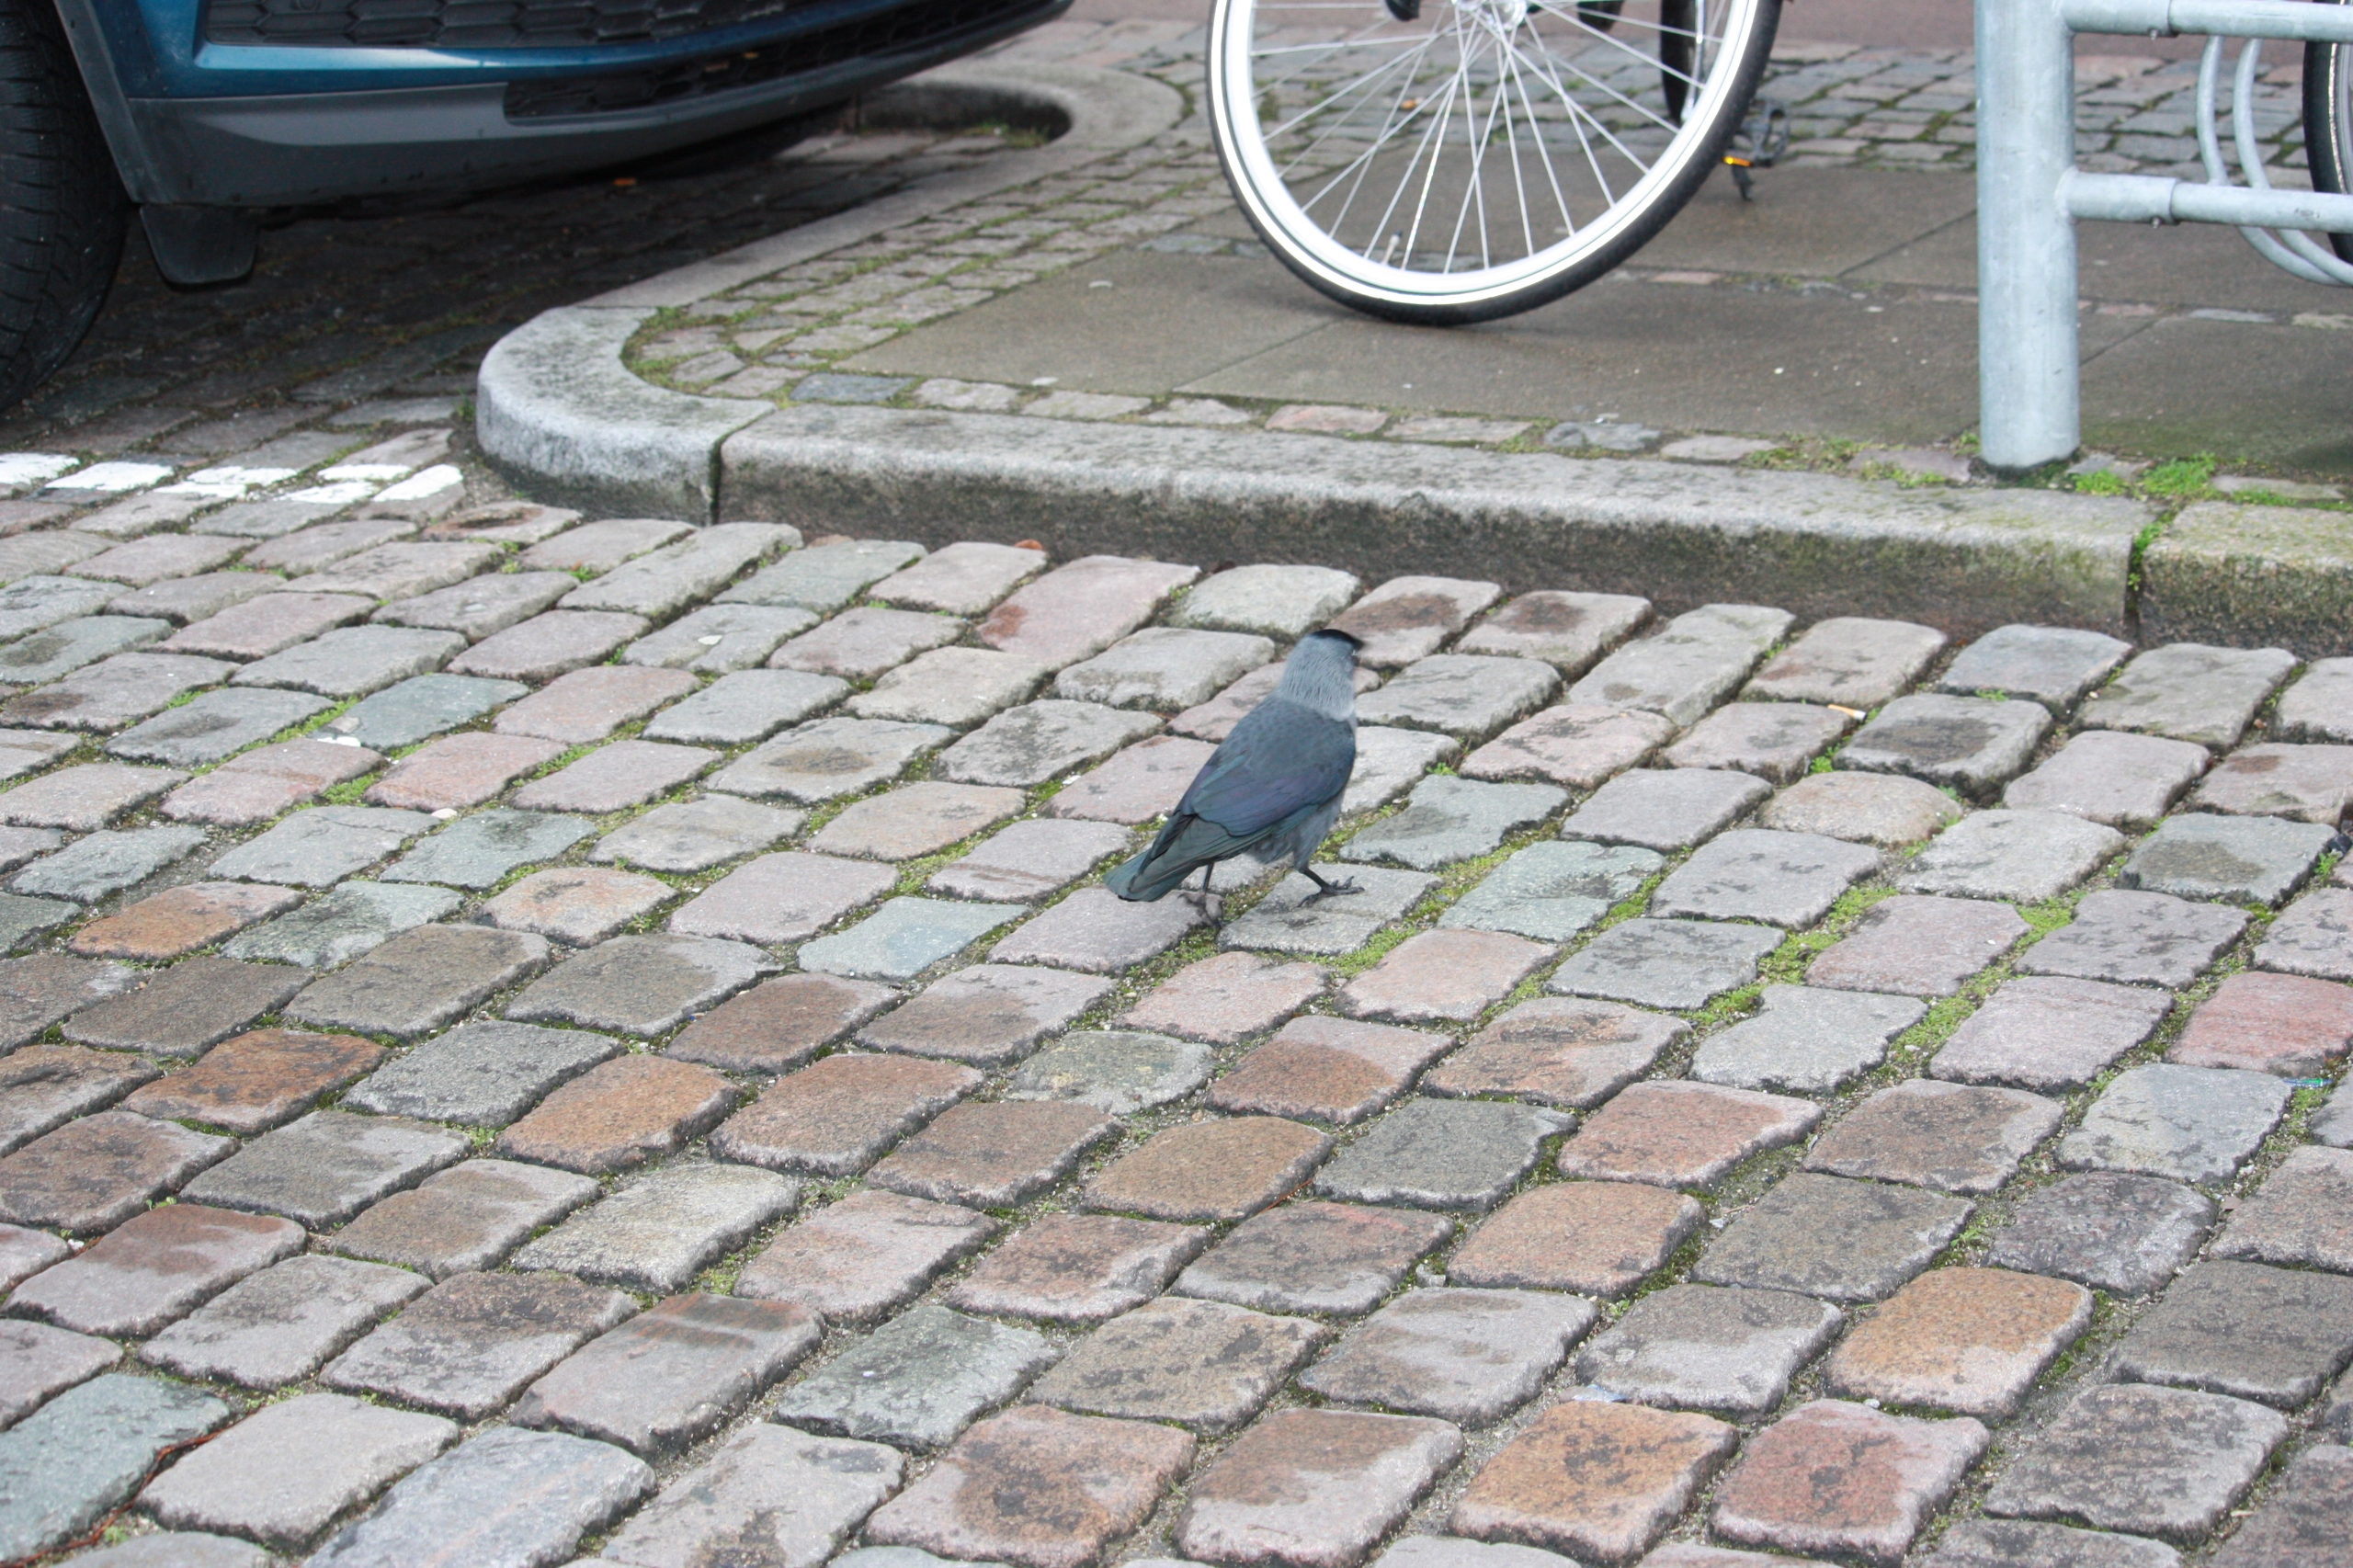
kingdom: Animalia
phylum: Chordata
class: Aves
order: Passeriformes
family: Corvidae
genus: Coloeus
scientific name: Coloeus monedula
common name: Allike
